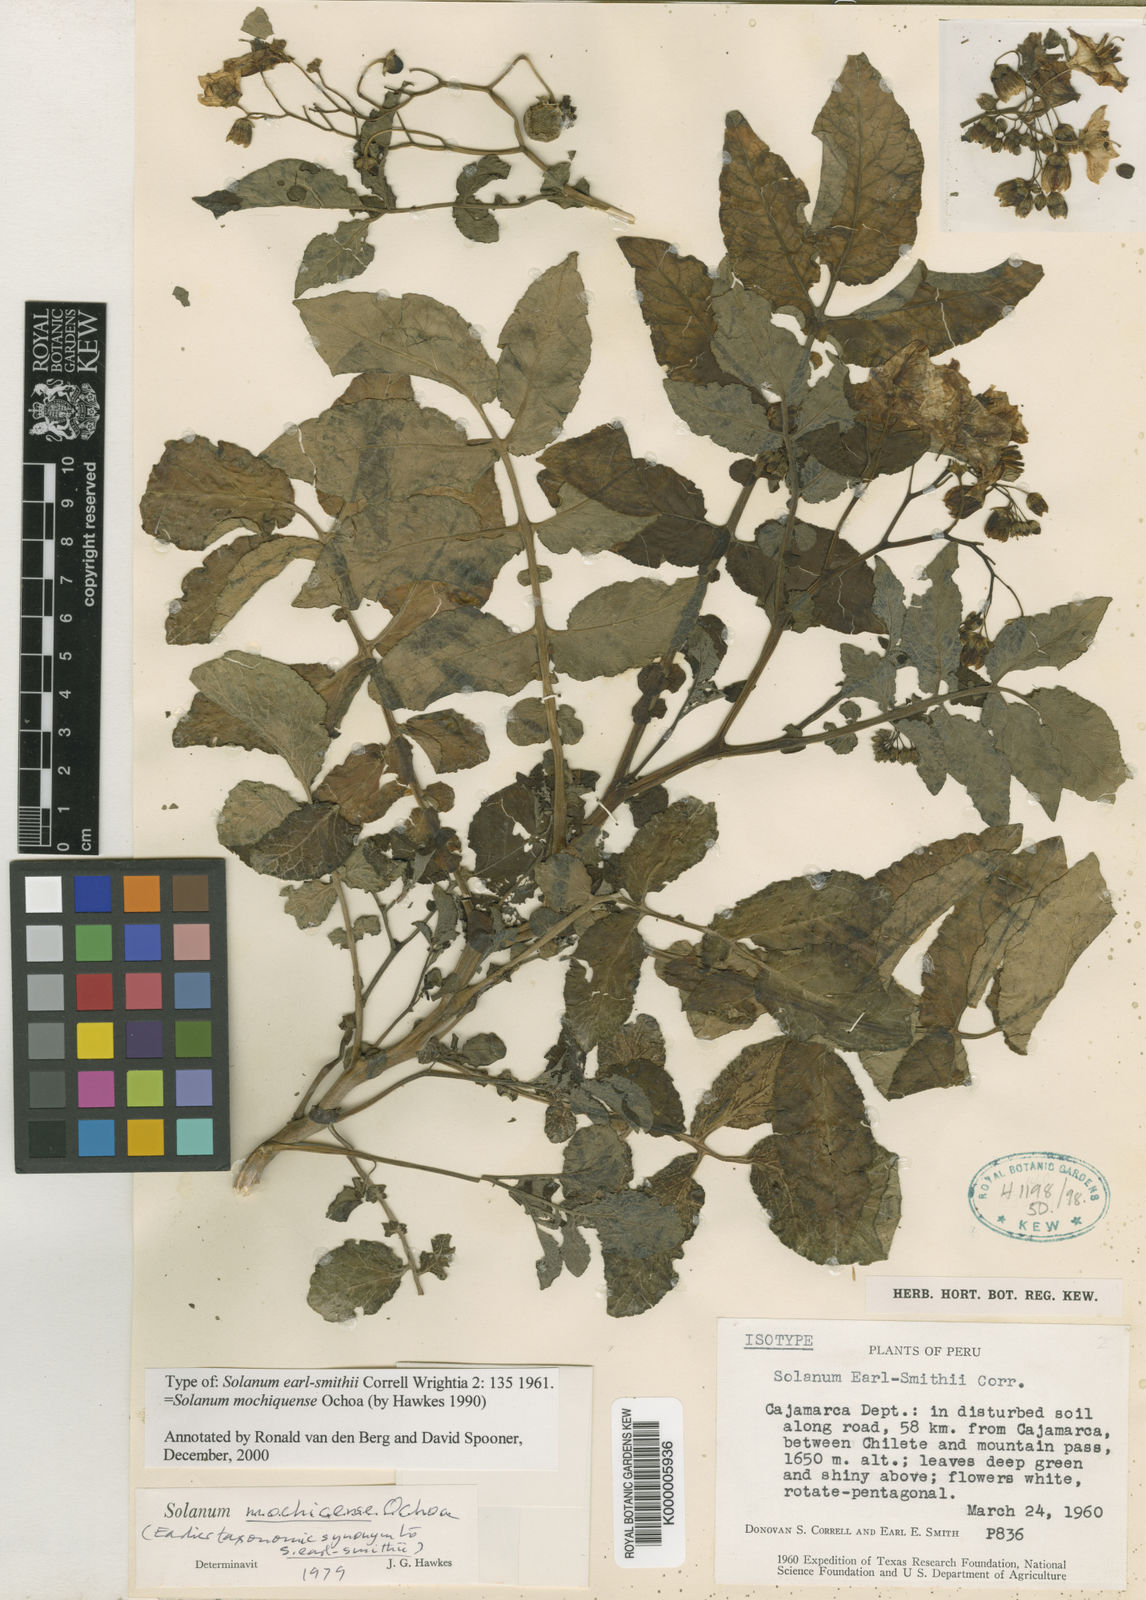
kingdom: Plantae
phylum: Tracheophyta
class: Magnoliopsida
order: Solanales
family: Solanaceae
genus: Solanum
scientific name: Solanum mochiquense
